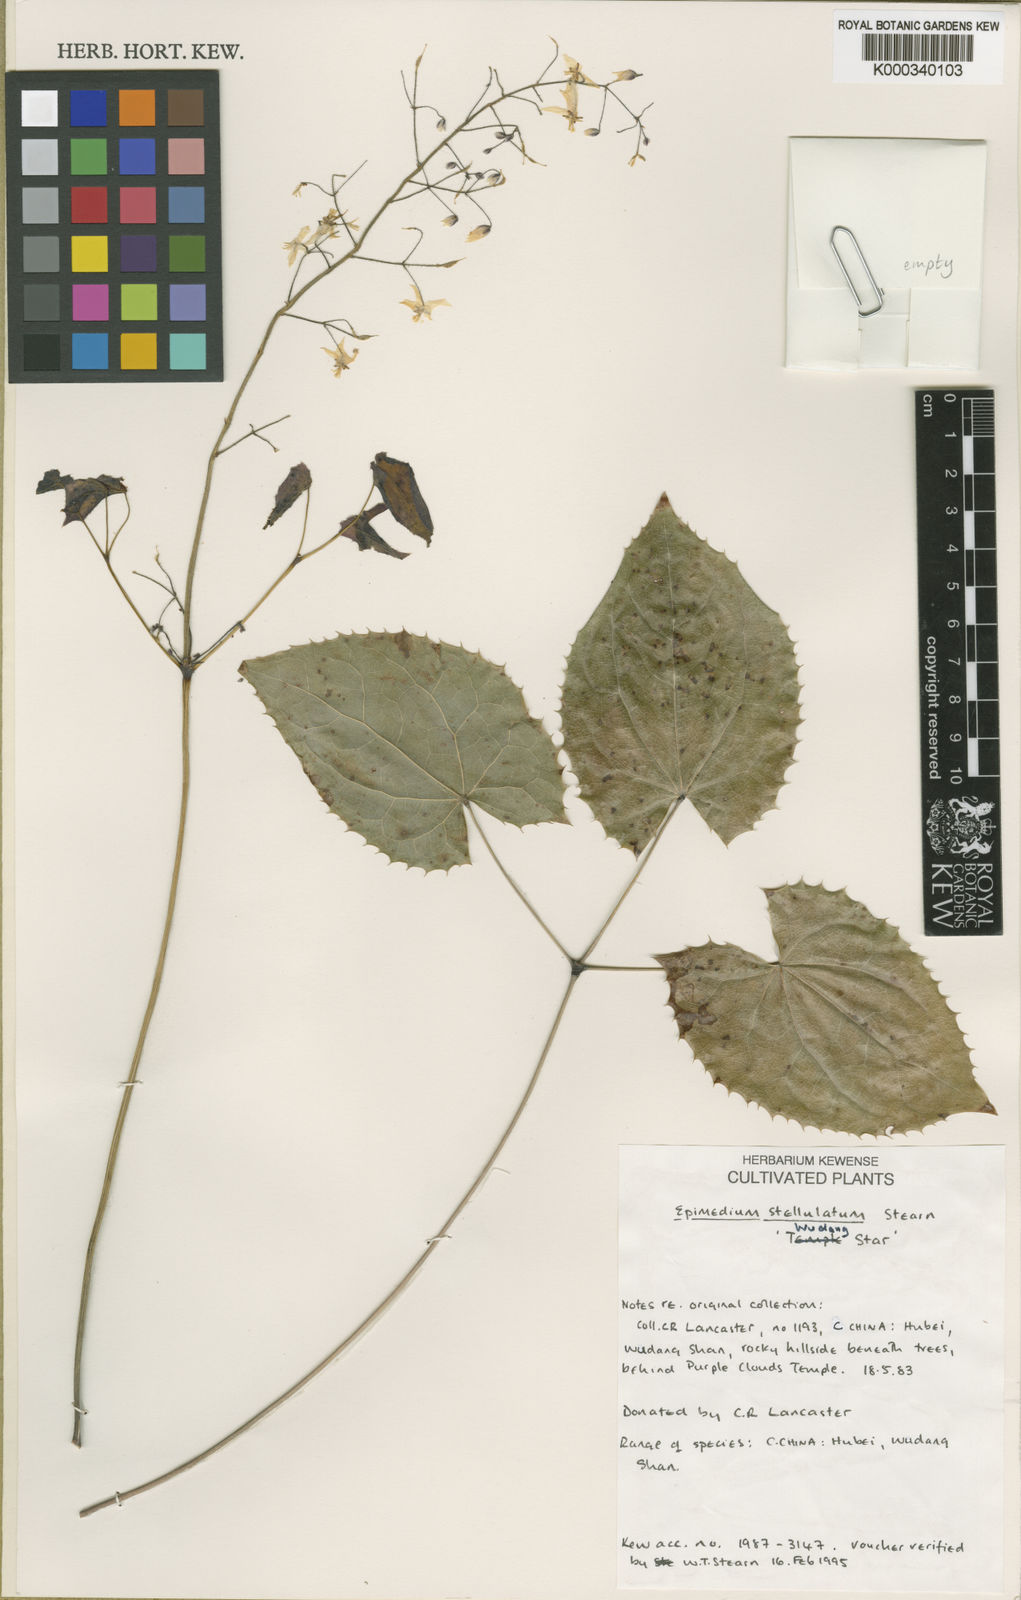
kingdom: Plantae
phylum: Tracheophyta
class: Magnoliopsida
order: Ranunculales
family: Berberidaceae
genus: Epimedium
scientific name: Epimedium stellulatum
